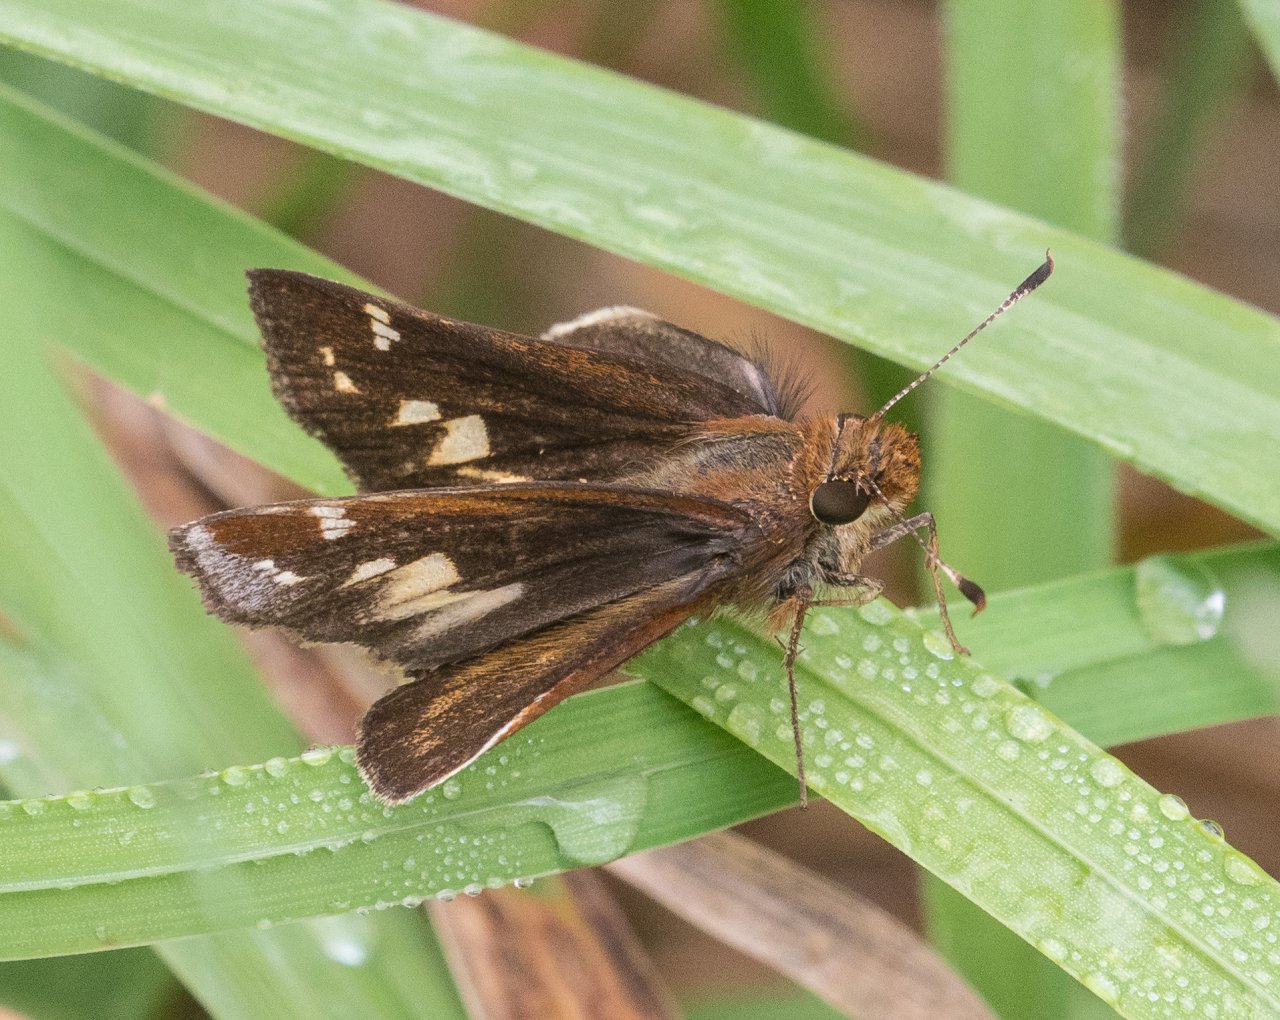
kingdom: Animalia
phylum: Arthropoda
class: Insecta
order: Lepidoptera
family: Hesperiidae
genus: Lon
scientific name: Lon zabulon
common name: Zabulon Skipper
